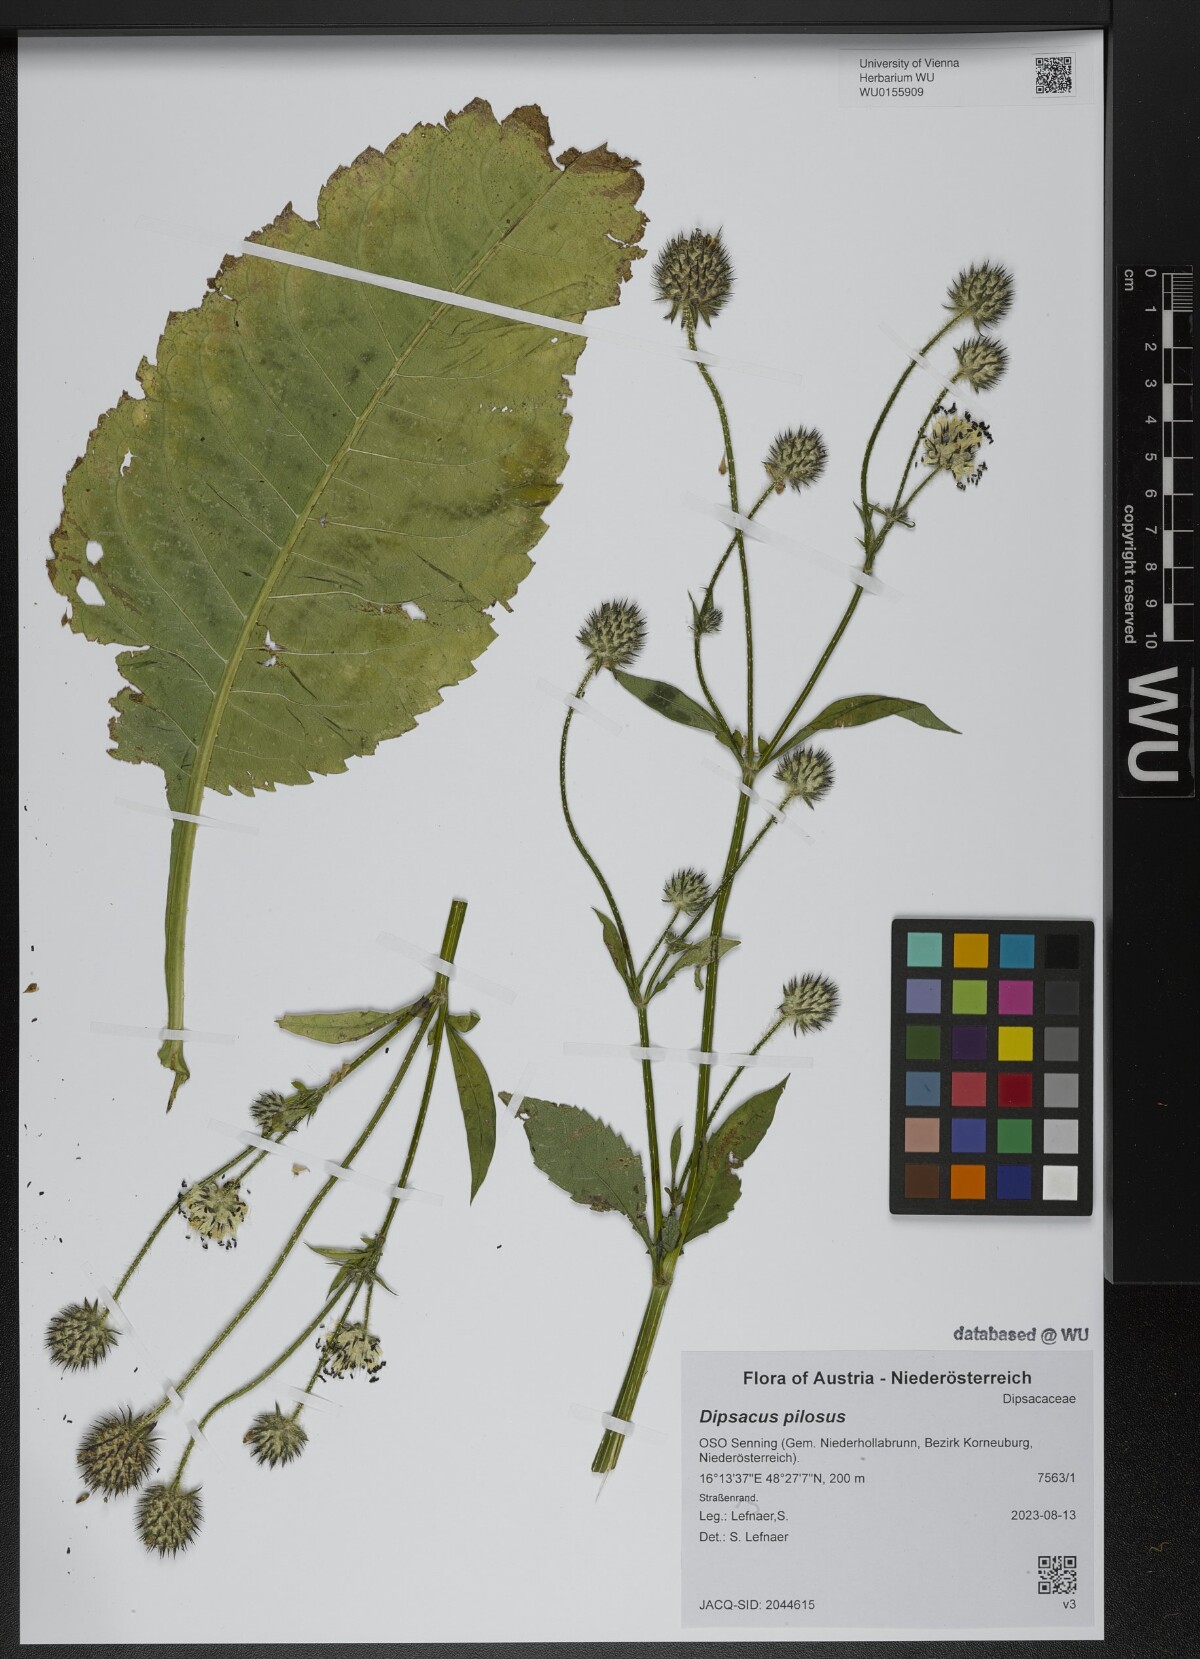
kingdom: Plantae
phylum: Tracheophyta
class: Magnoliopsida
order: Dipsacales
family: Caprifoliaceae
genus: Dipsacus
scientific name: Dipsacus pilosus
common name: Small teasel
